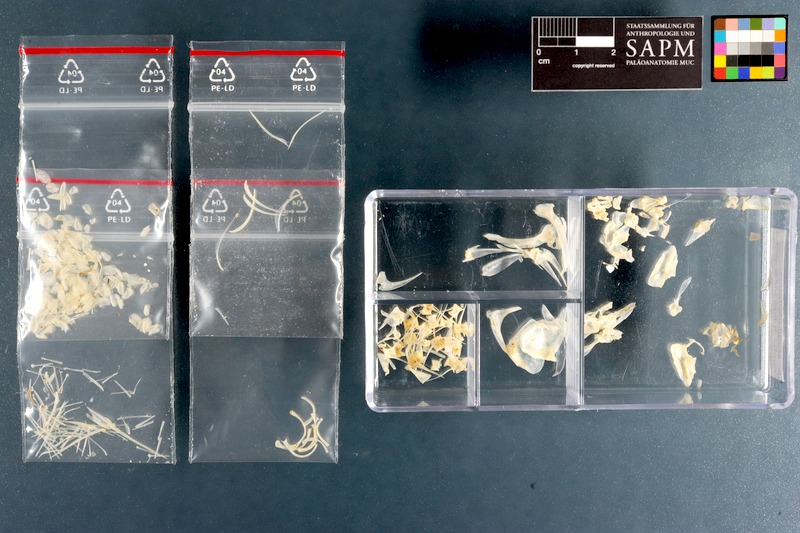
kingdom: Animalia
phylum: Chordata
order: Mugiliformes
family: Mugilidae
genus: Mugil
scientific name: Mugil cephalus
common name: Grey mullet
